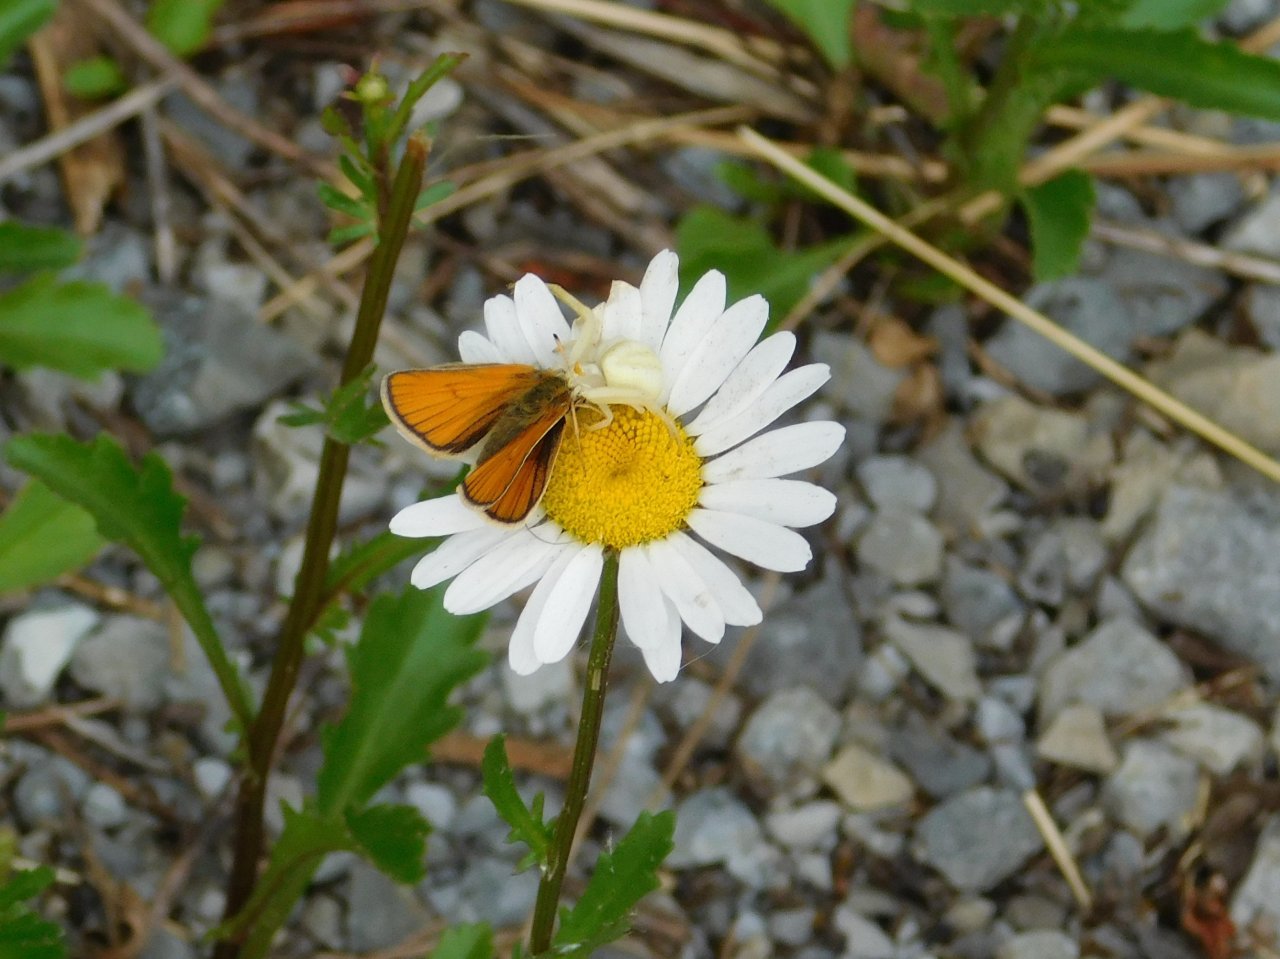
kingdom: Animalia
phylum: Arthropoda
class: Insecta
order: Lepidoptera
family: Hesperiidae
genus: Thymelicus
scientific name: Thymelicus lineola
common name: European Skipper
